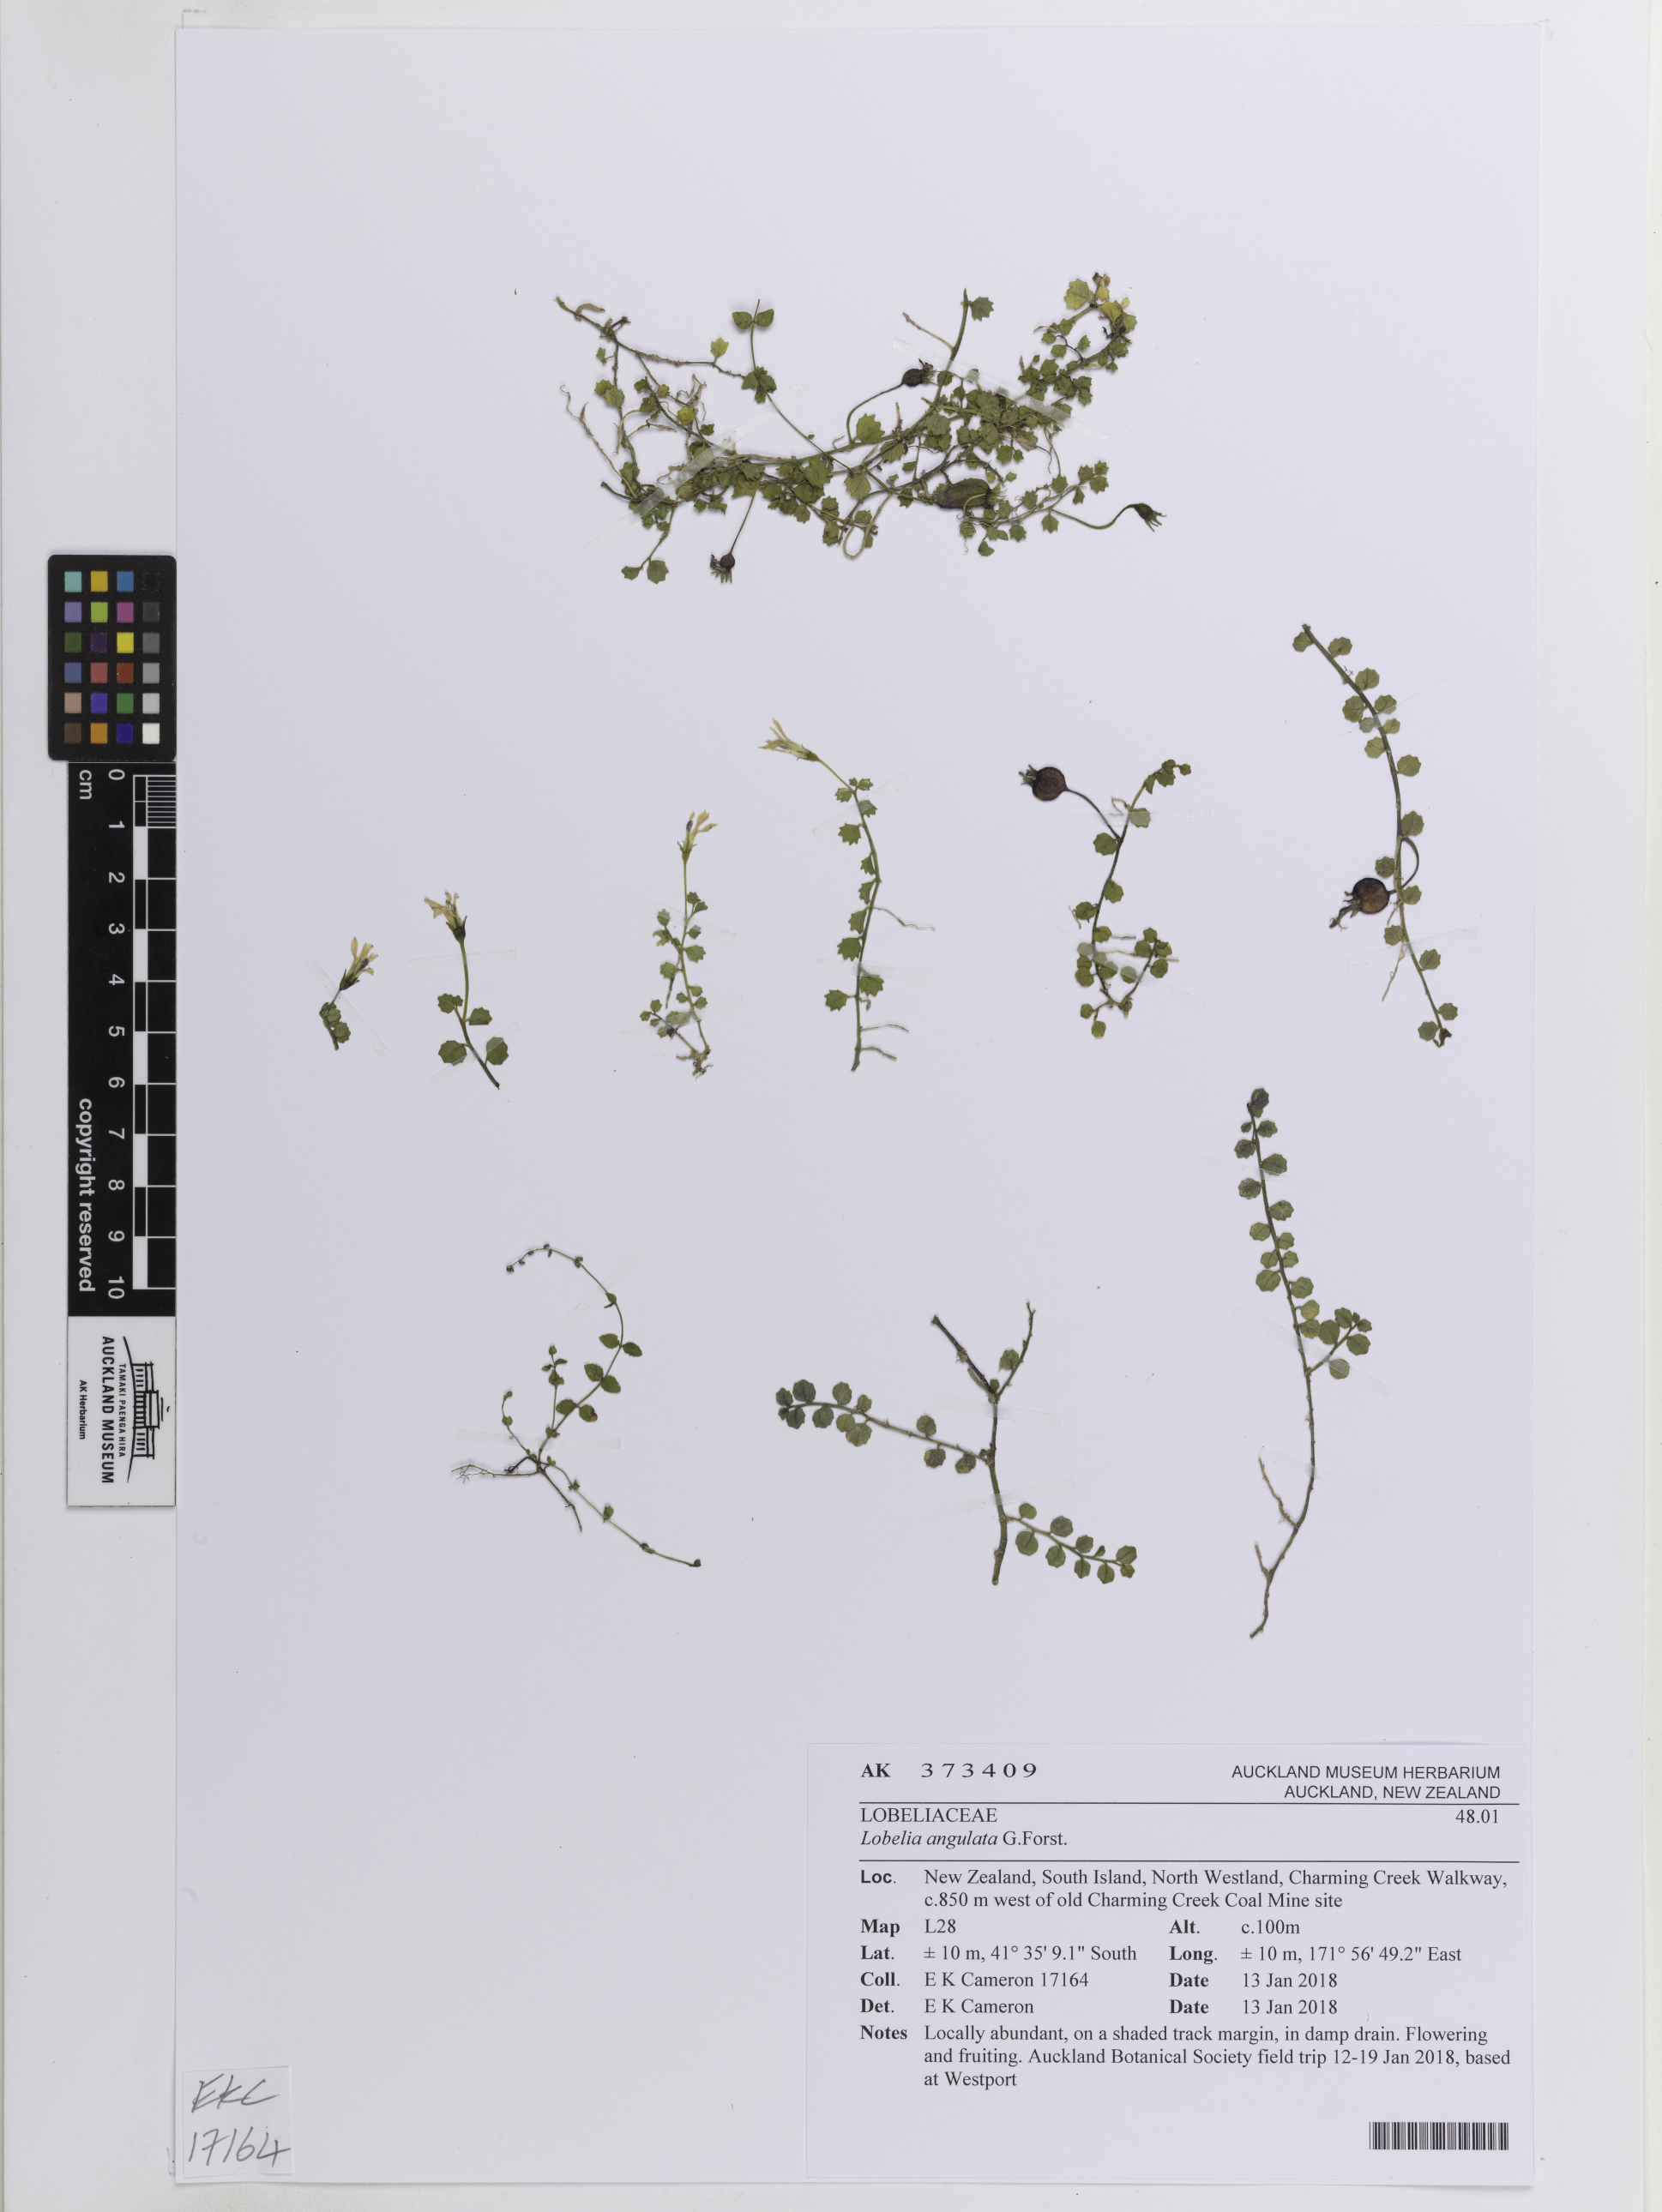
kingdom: Plantae
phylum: Tracheophyta
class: Magnoliopsida
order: Asterales
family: Campanulaceae
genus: Lobelia
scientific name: Lobelia angulata
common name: Lawn lobelia
